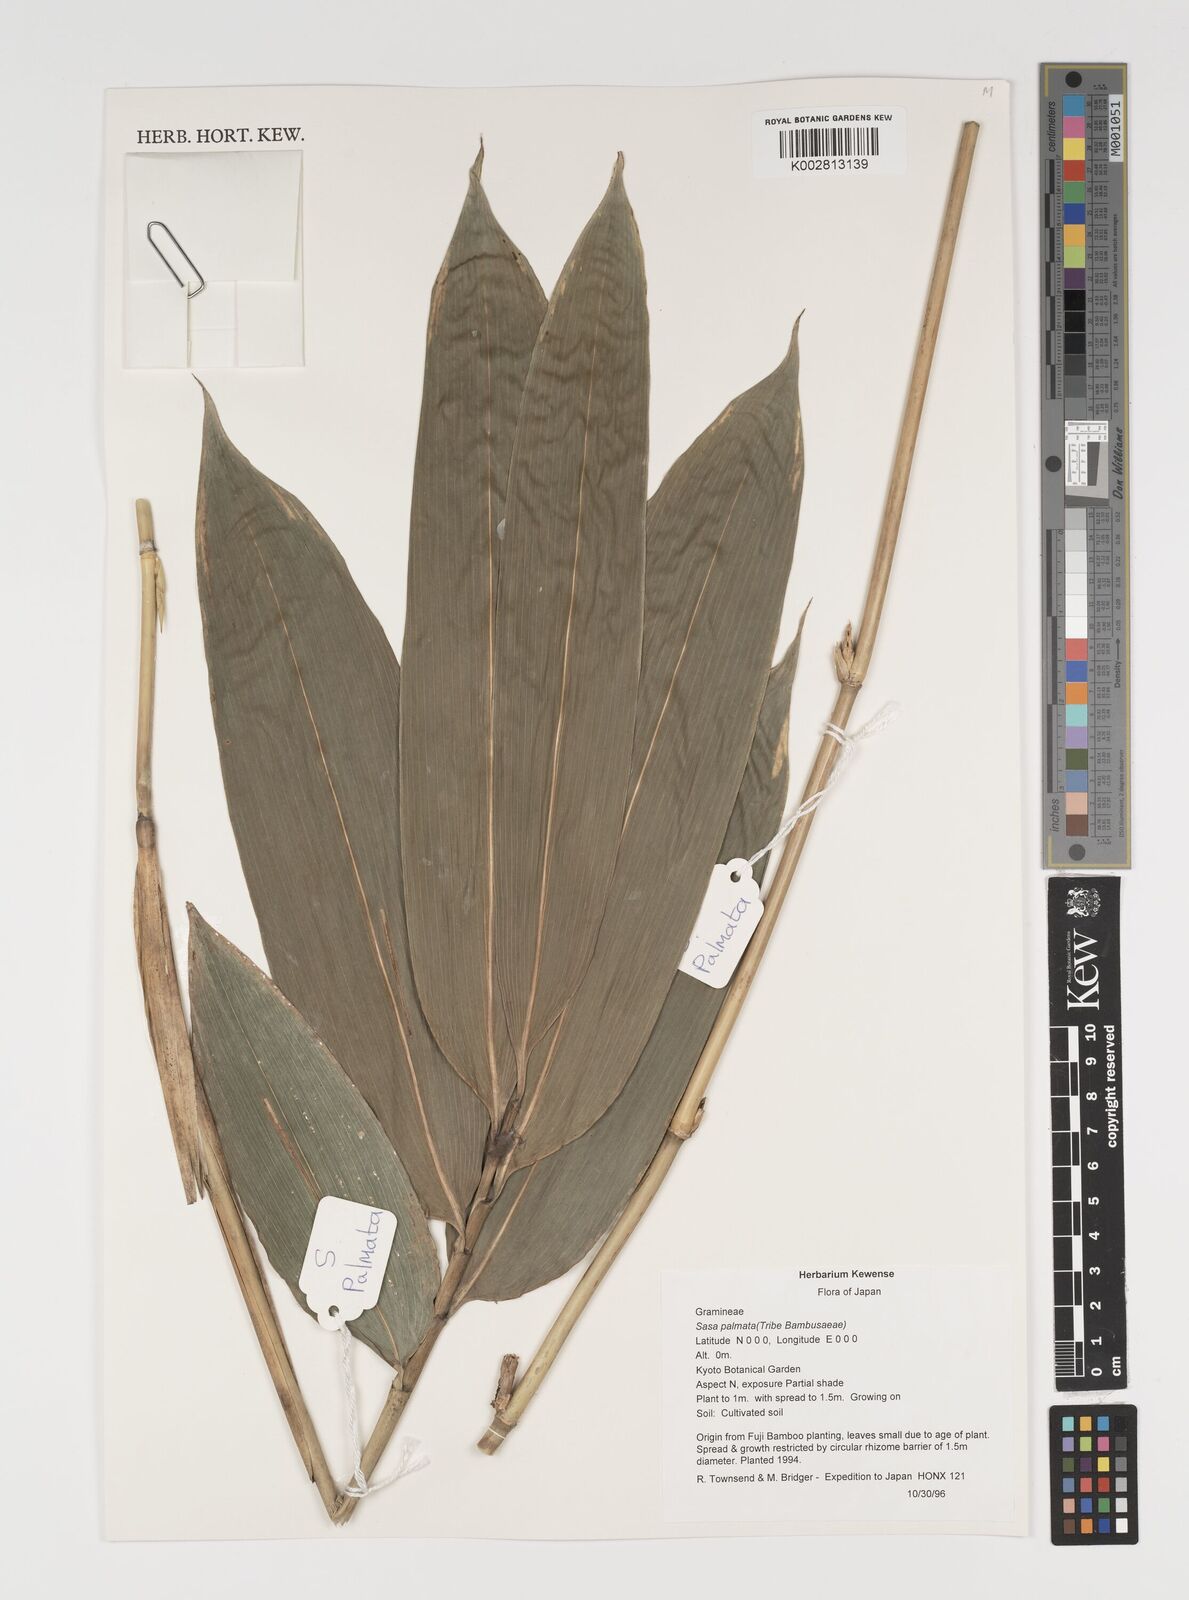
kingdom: Plantae
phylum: Tracheophyta
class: Liliopsida
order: Poales
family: Poaceae
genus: Sasa
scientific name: Sasa palmata
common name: Broad-leaved bamboo
